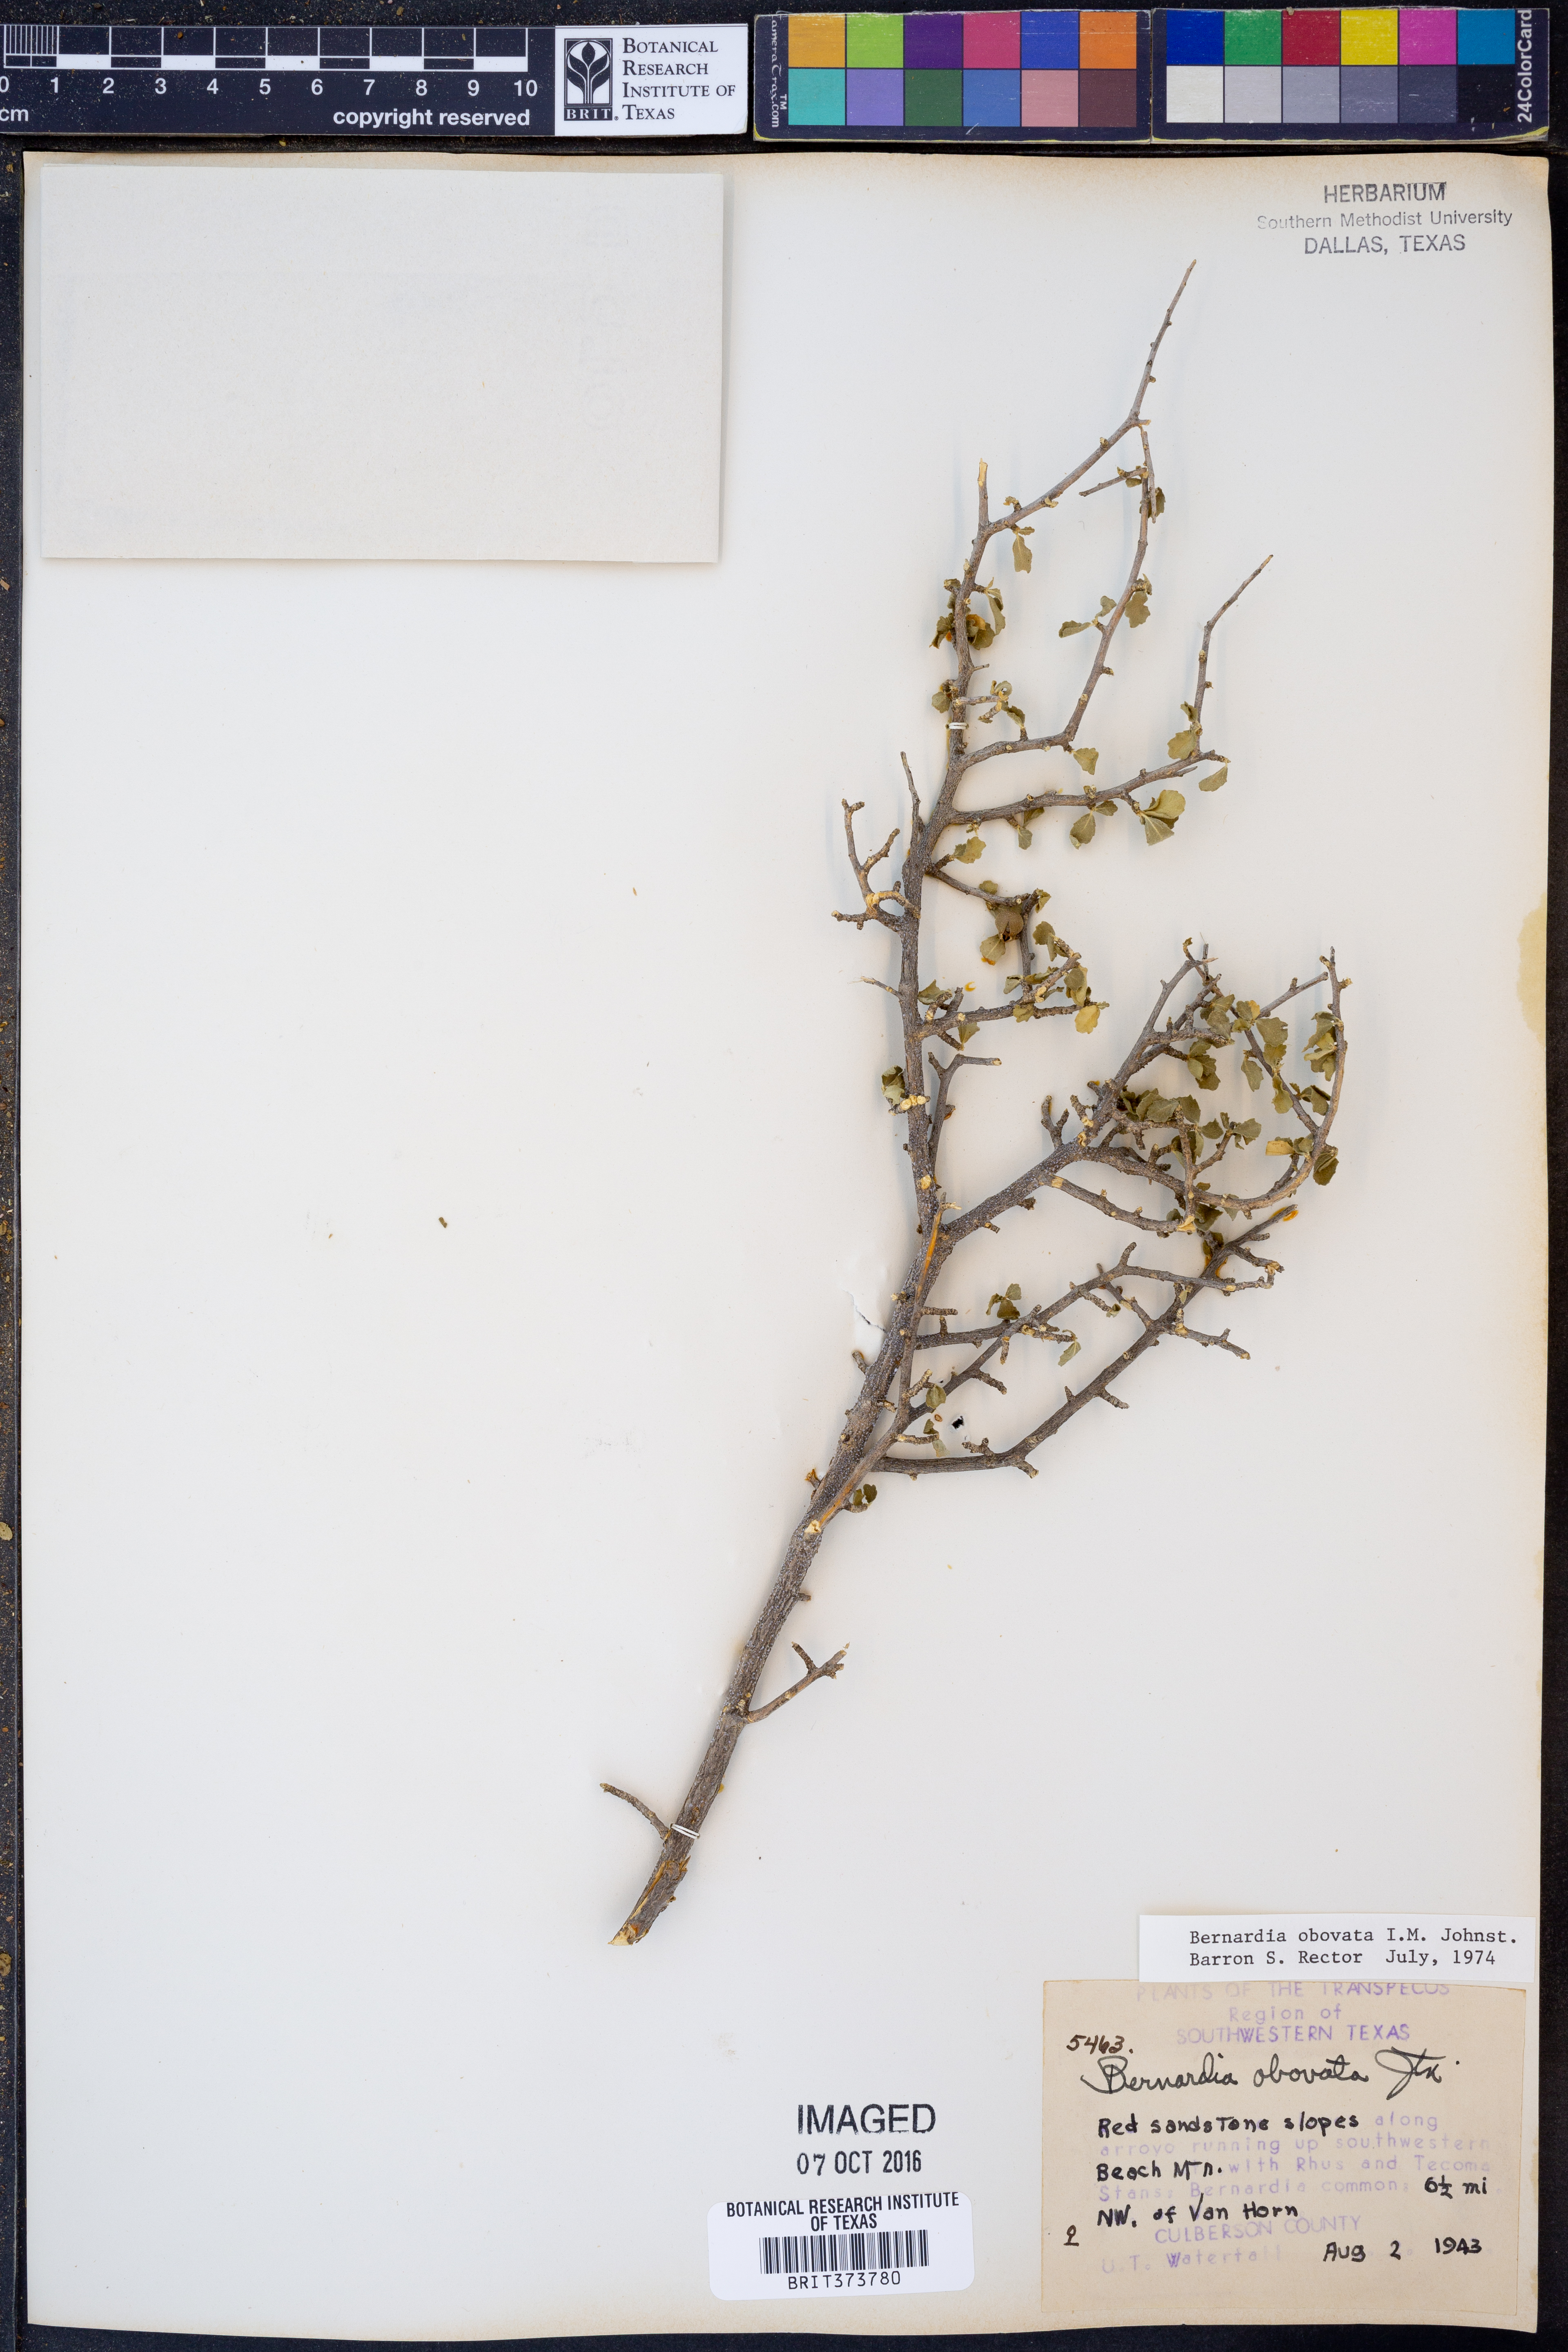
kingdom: Plantae
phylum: Tracheophyta
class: Magnoliopsida
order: Malpighiales
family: Euphorbiaceae
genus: Bernardia
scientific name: Bernardia obovata
